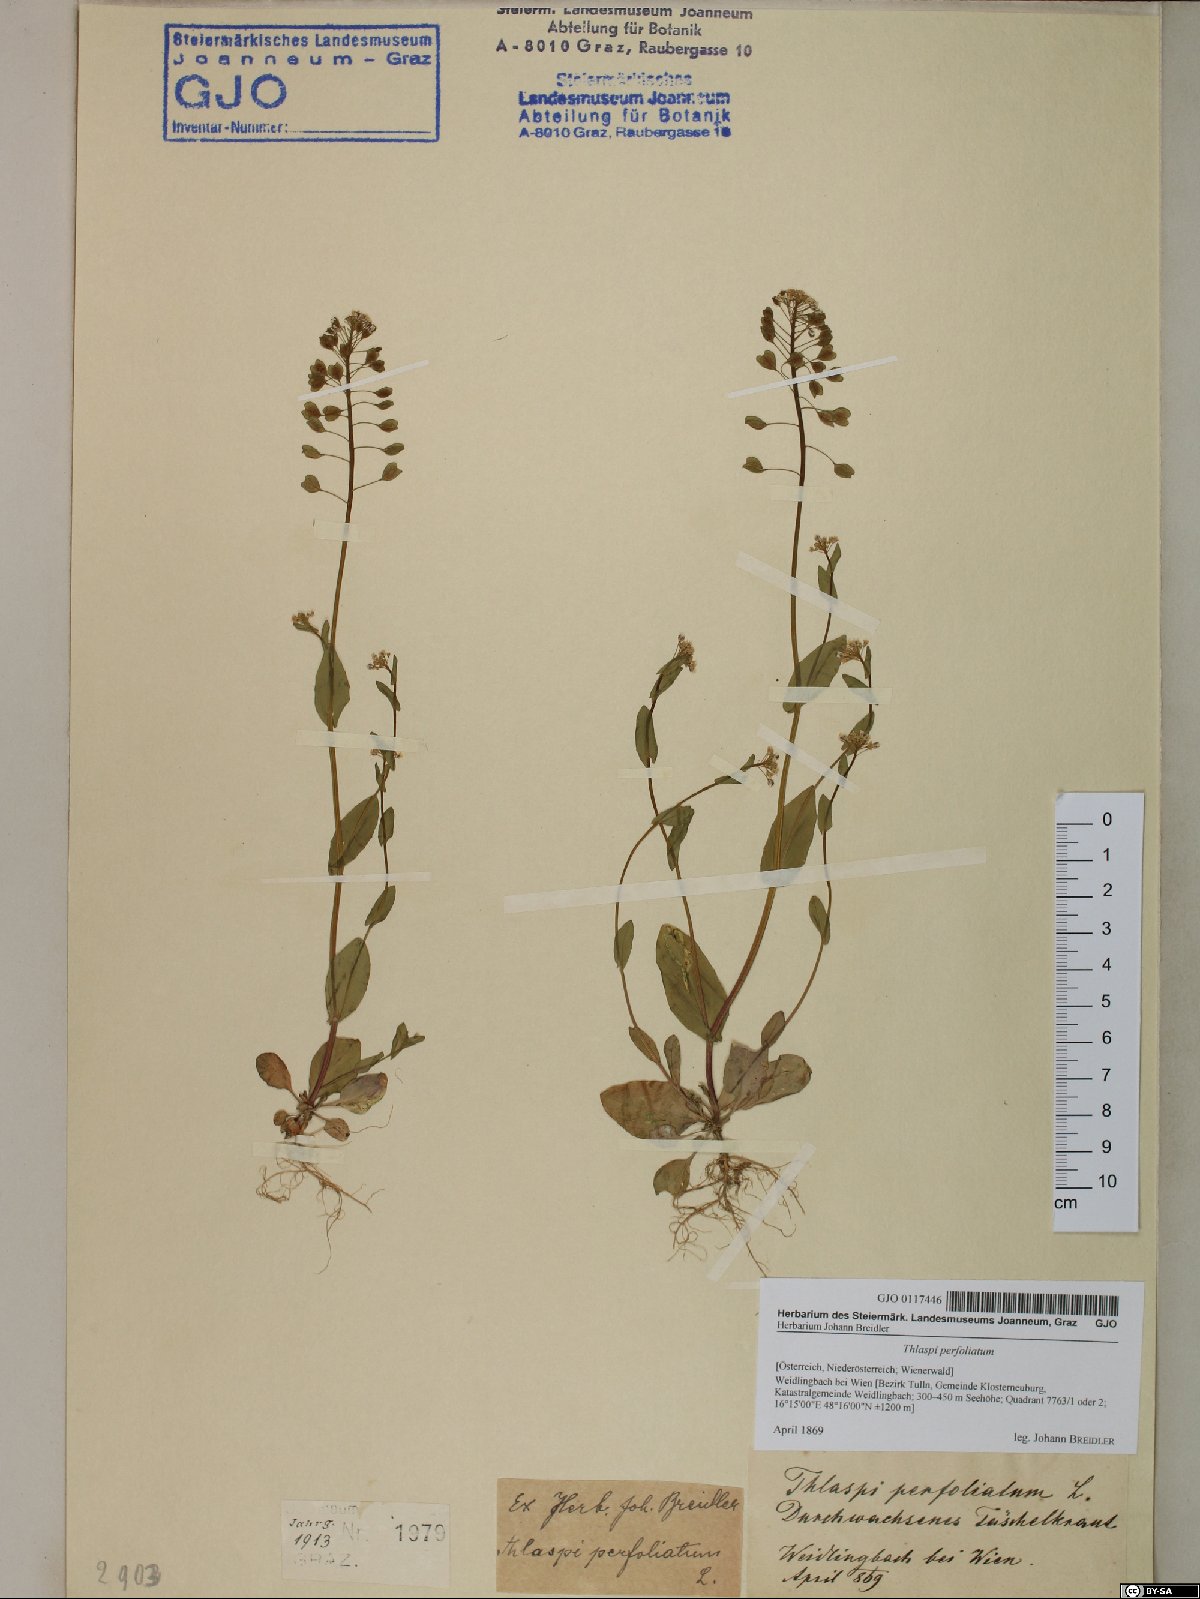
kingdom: Plantae
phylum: Tracheophyta
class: Magnoliopsida
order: Brassicales
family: Brassicaceae
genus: Noccaea
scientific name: Noccaea perfoliata
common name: Perfoliate pennycress
